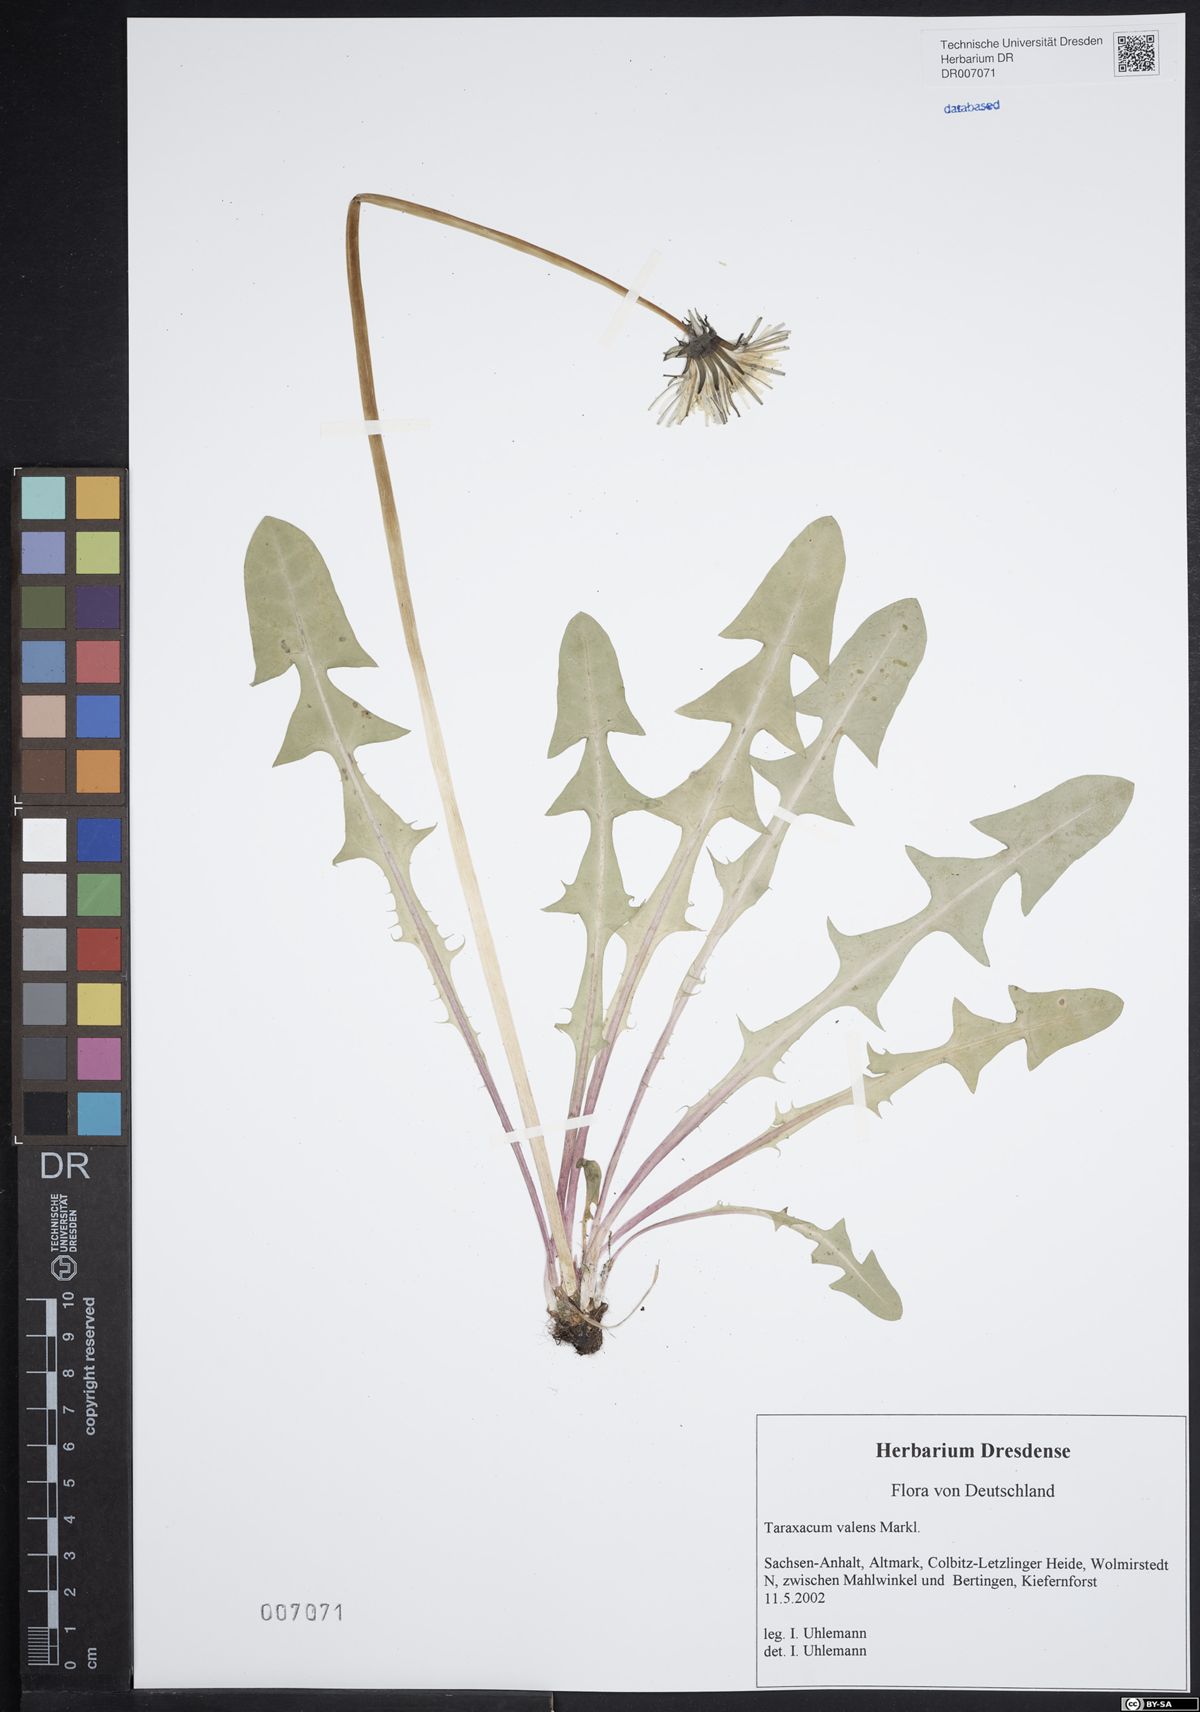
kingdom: Plantae
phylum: Tracheophyta
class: Magnoliopsida
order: Asterales
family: Asteraceae
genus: Taraxacum
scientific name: Taraxacum valens
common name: Reflexed-bracted dandelion
